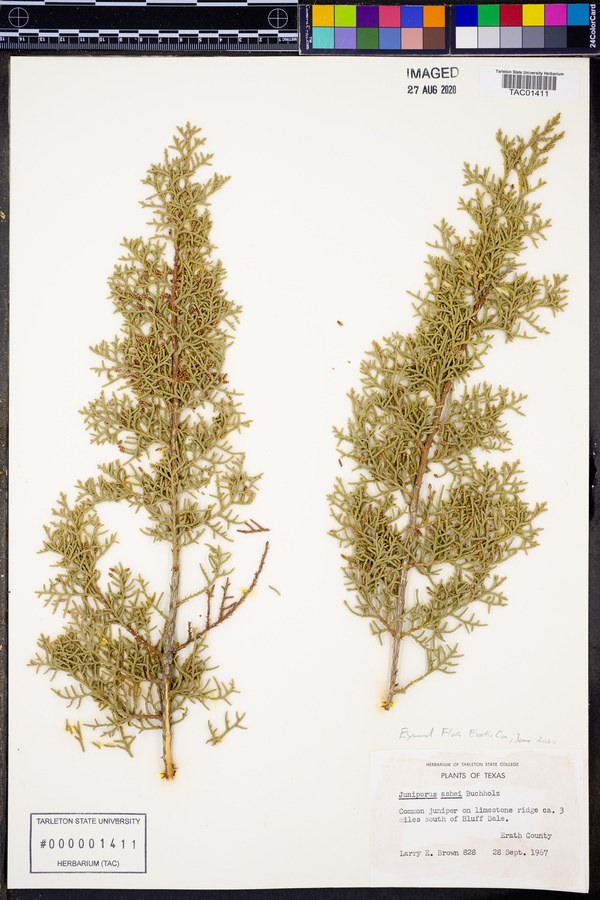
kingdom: Plantae
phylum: Tracheophyta
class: Pinopsida
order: Pinales
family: Cupressaceae
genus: Juniperus
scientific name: Juniperus ashei
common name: Mexican juniper
